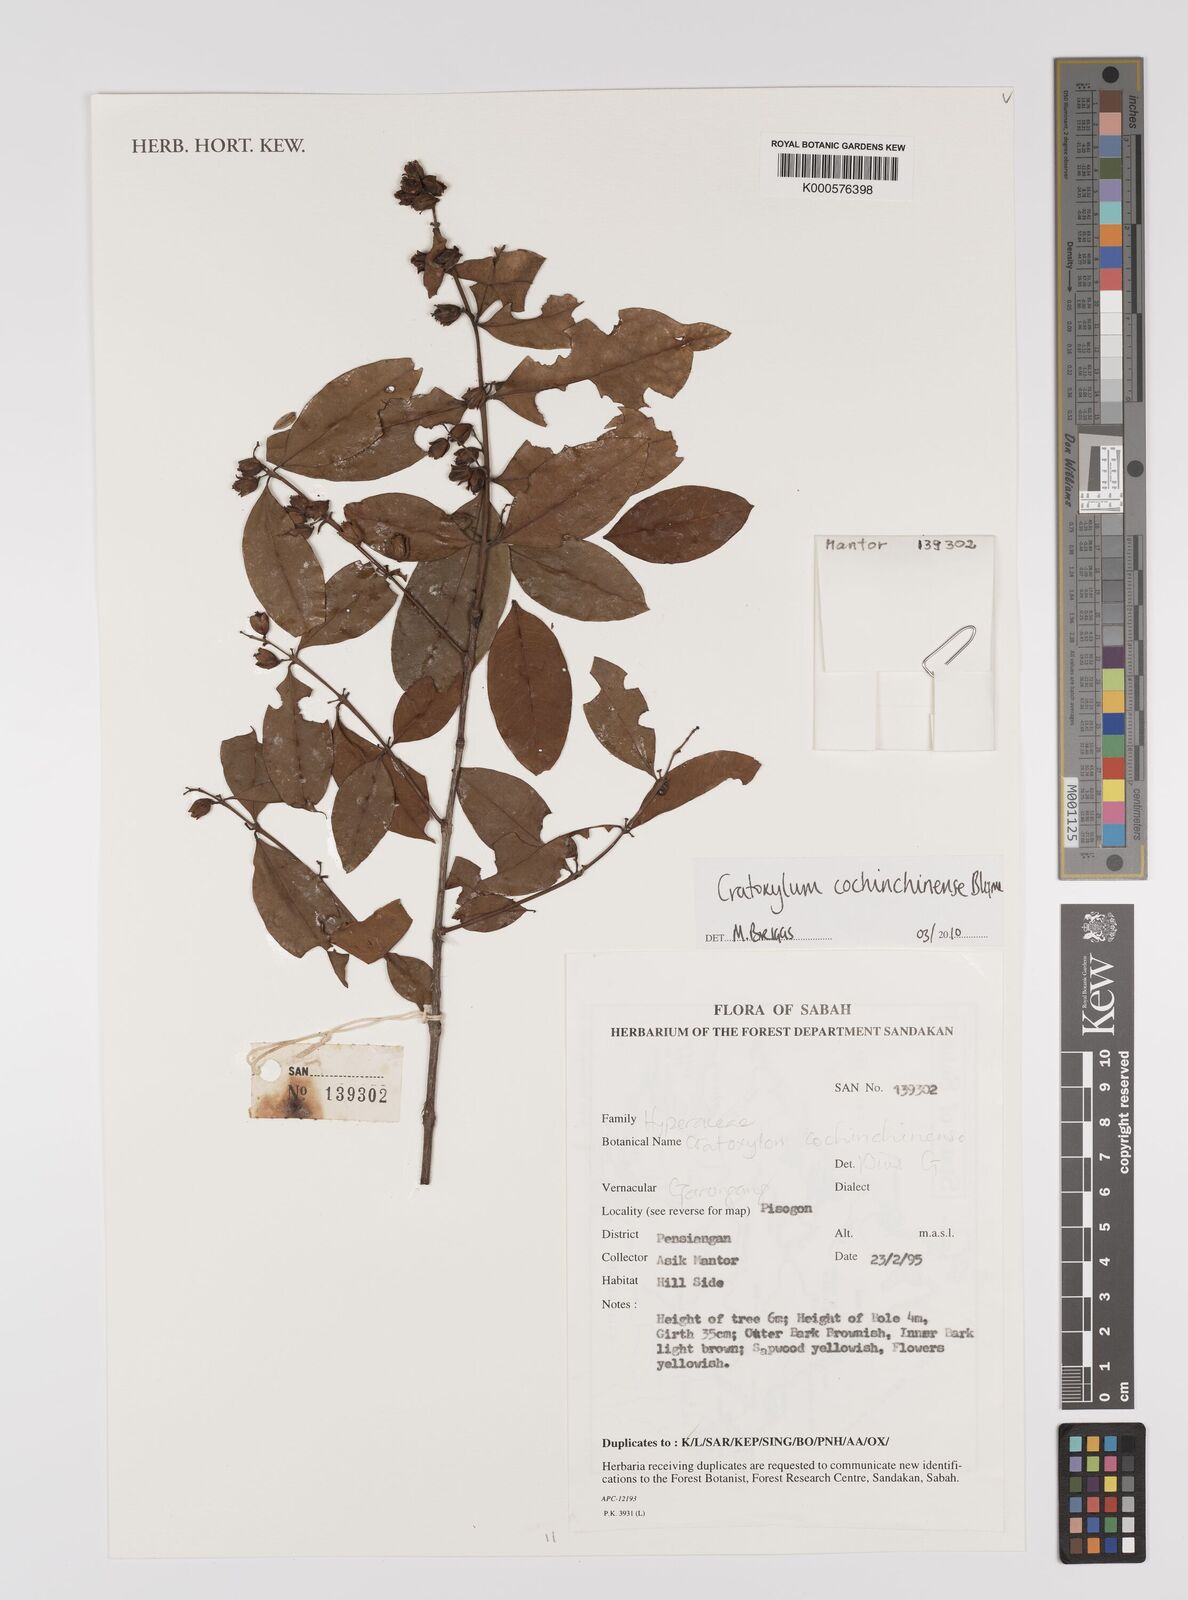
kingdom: Plantae
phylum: Tracheophyta
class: Magnoliopsida
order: Malpighiales
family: Hypericaceae
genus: Cratoxylum
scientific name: Cratoxylum cochinchinense
